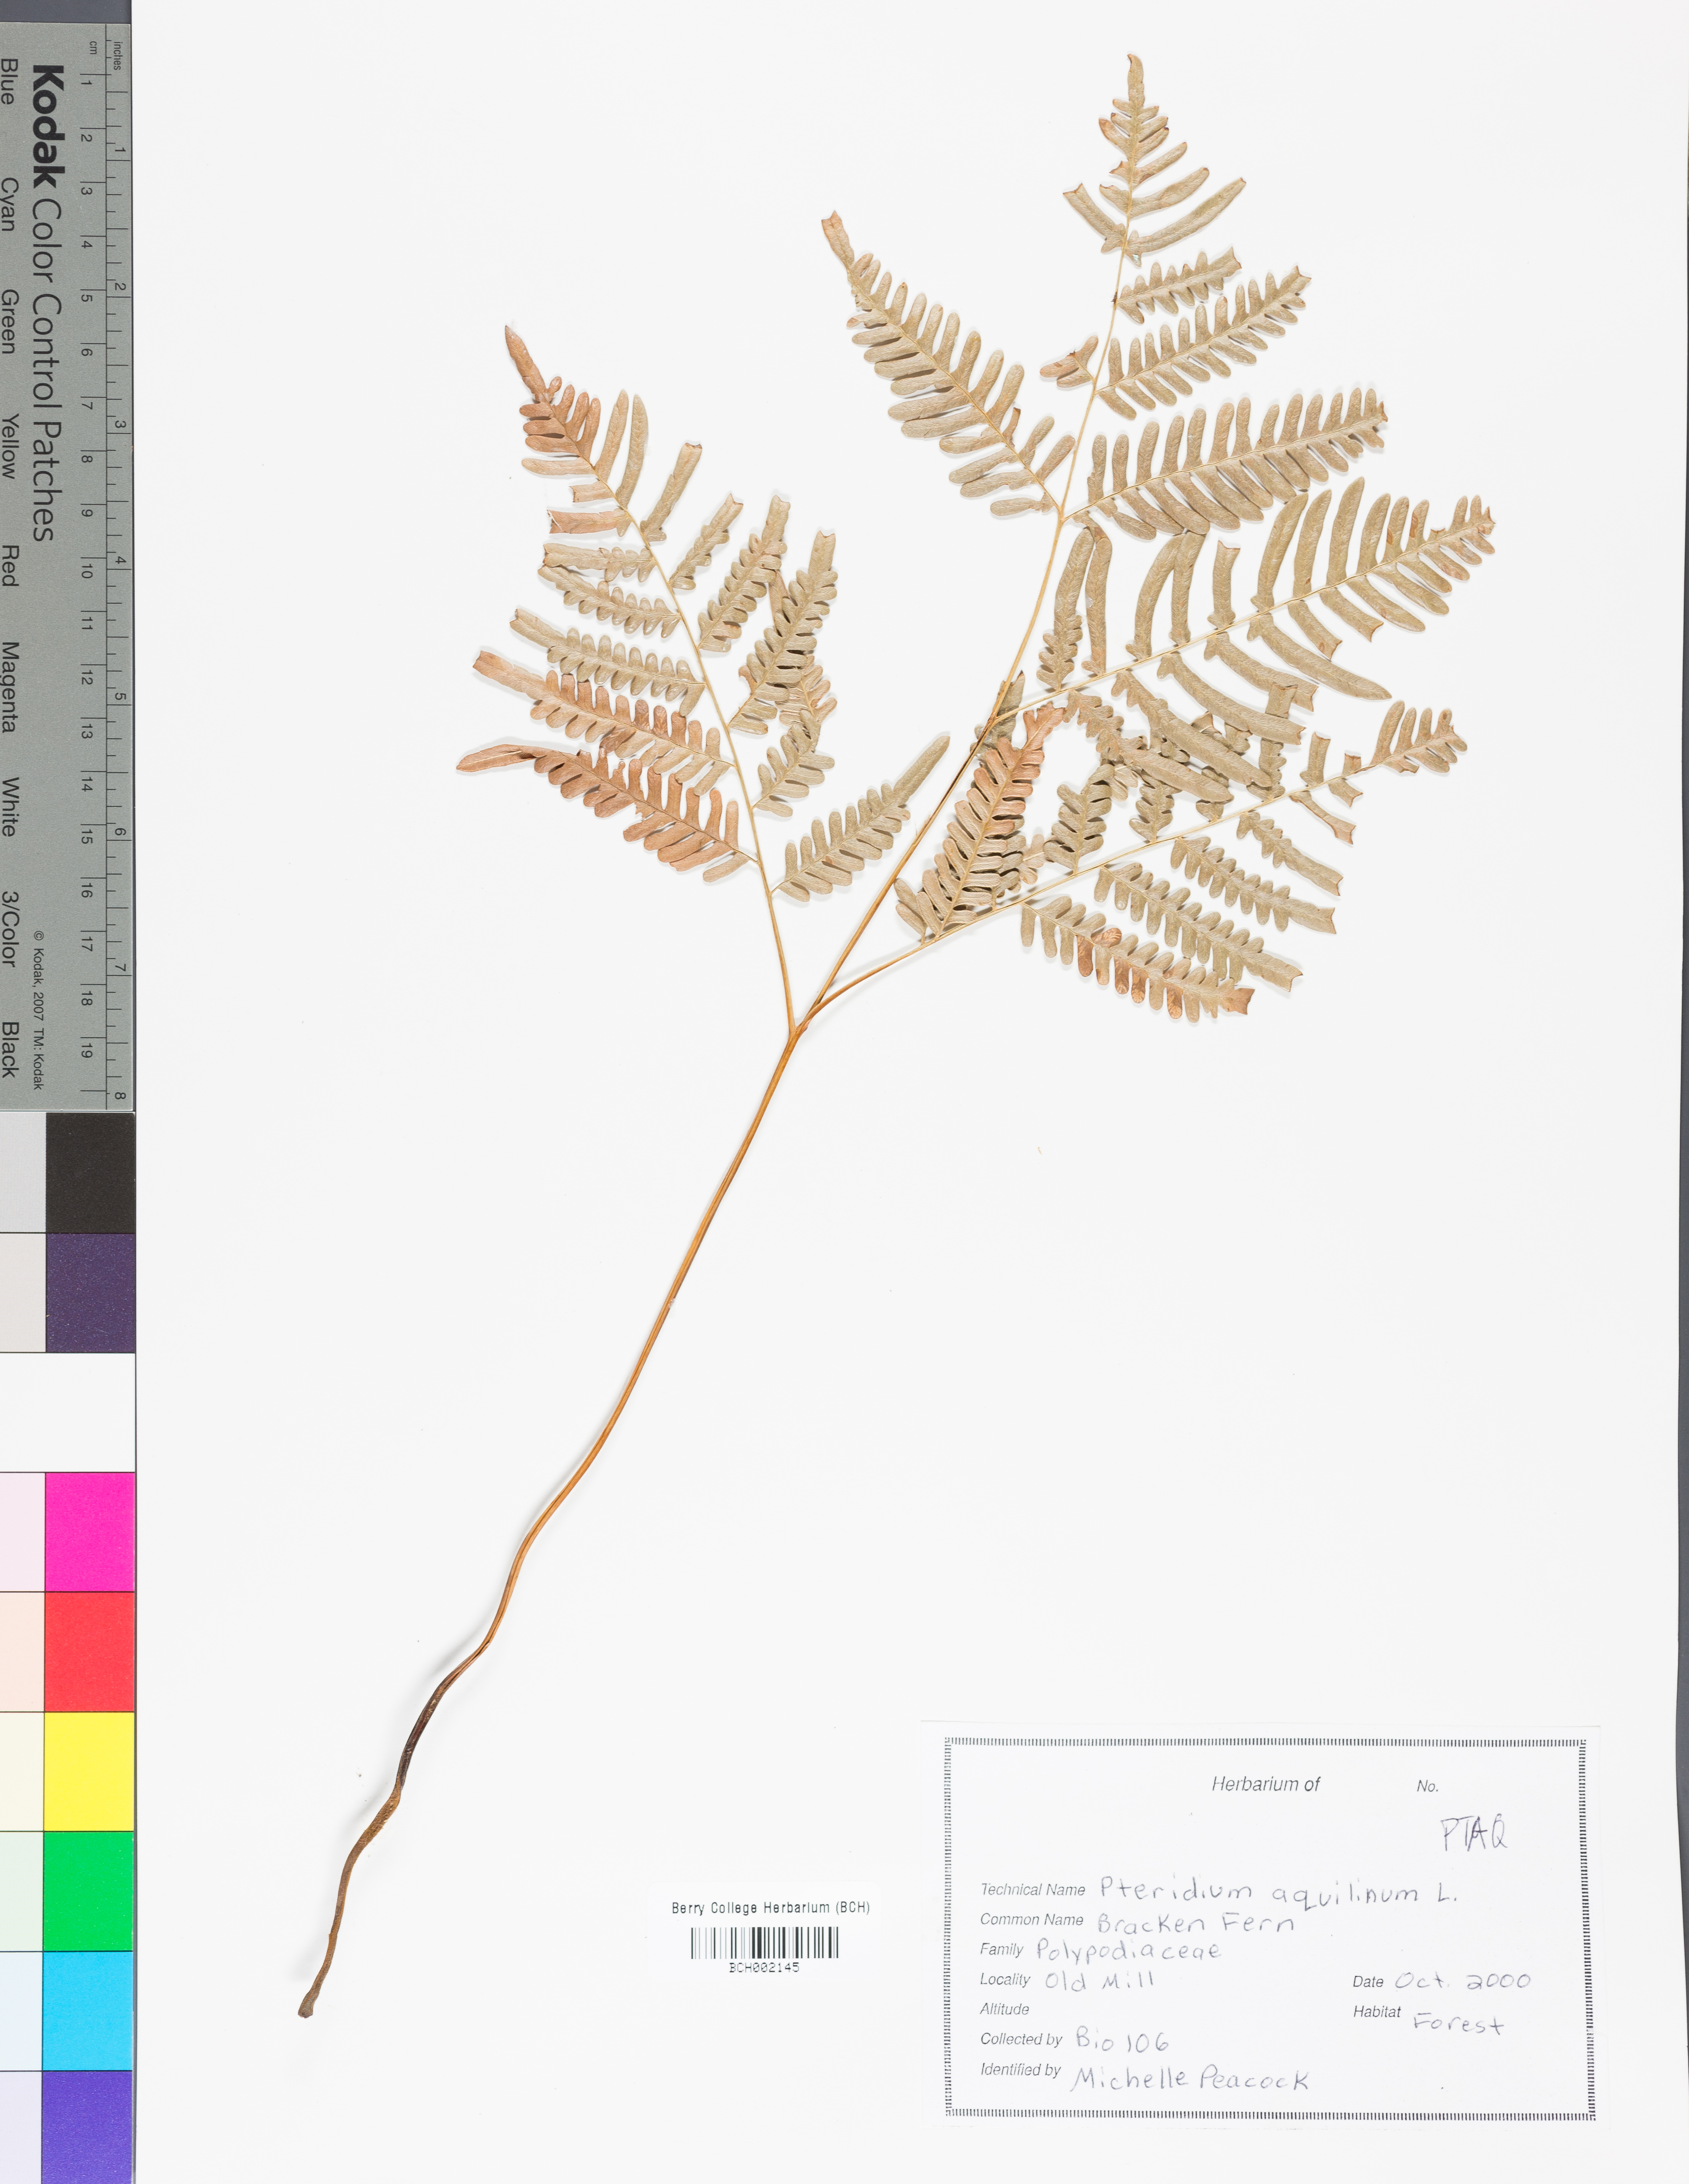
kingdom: Plantae
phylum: Tracheophyta
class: Polypodiopsida
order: Polypodiales
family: Cystopteridaceae
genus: Gymnocarpium
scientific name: Gymnocarpium dryopteris
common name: Oak fern
